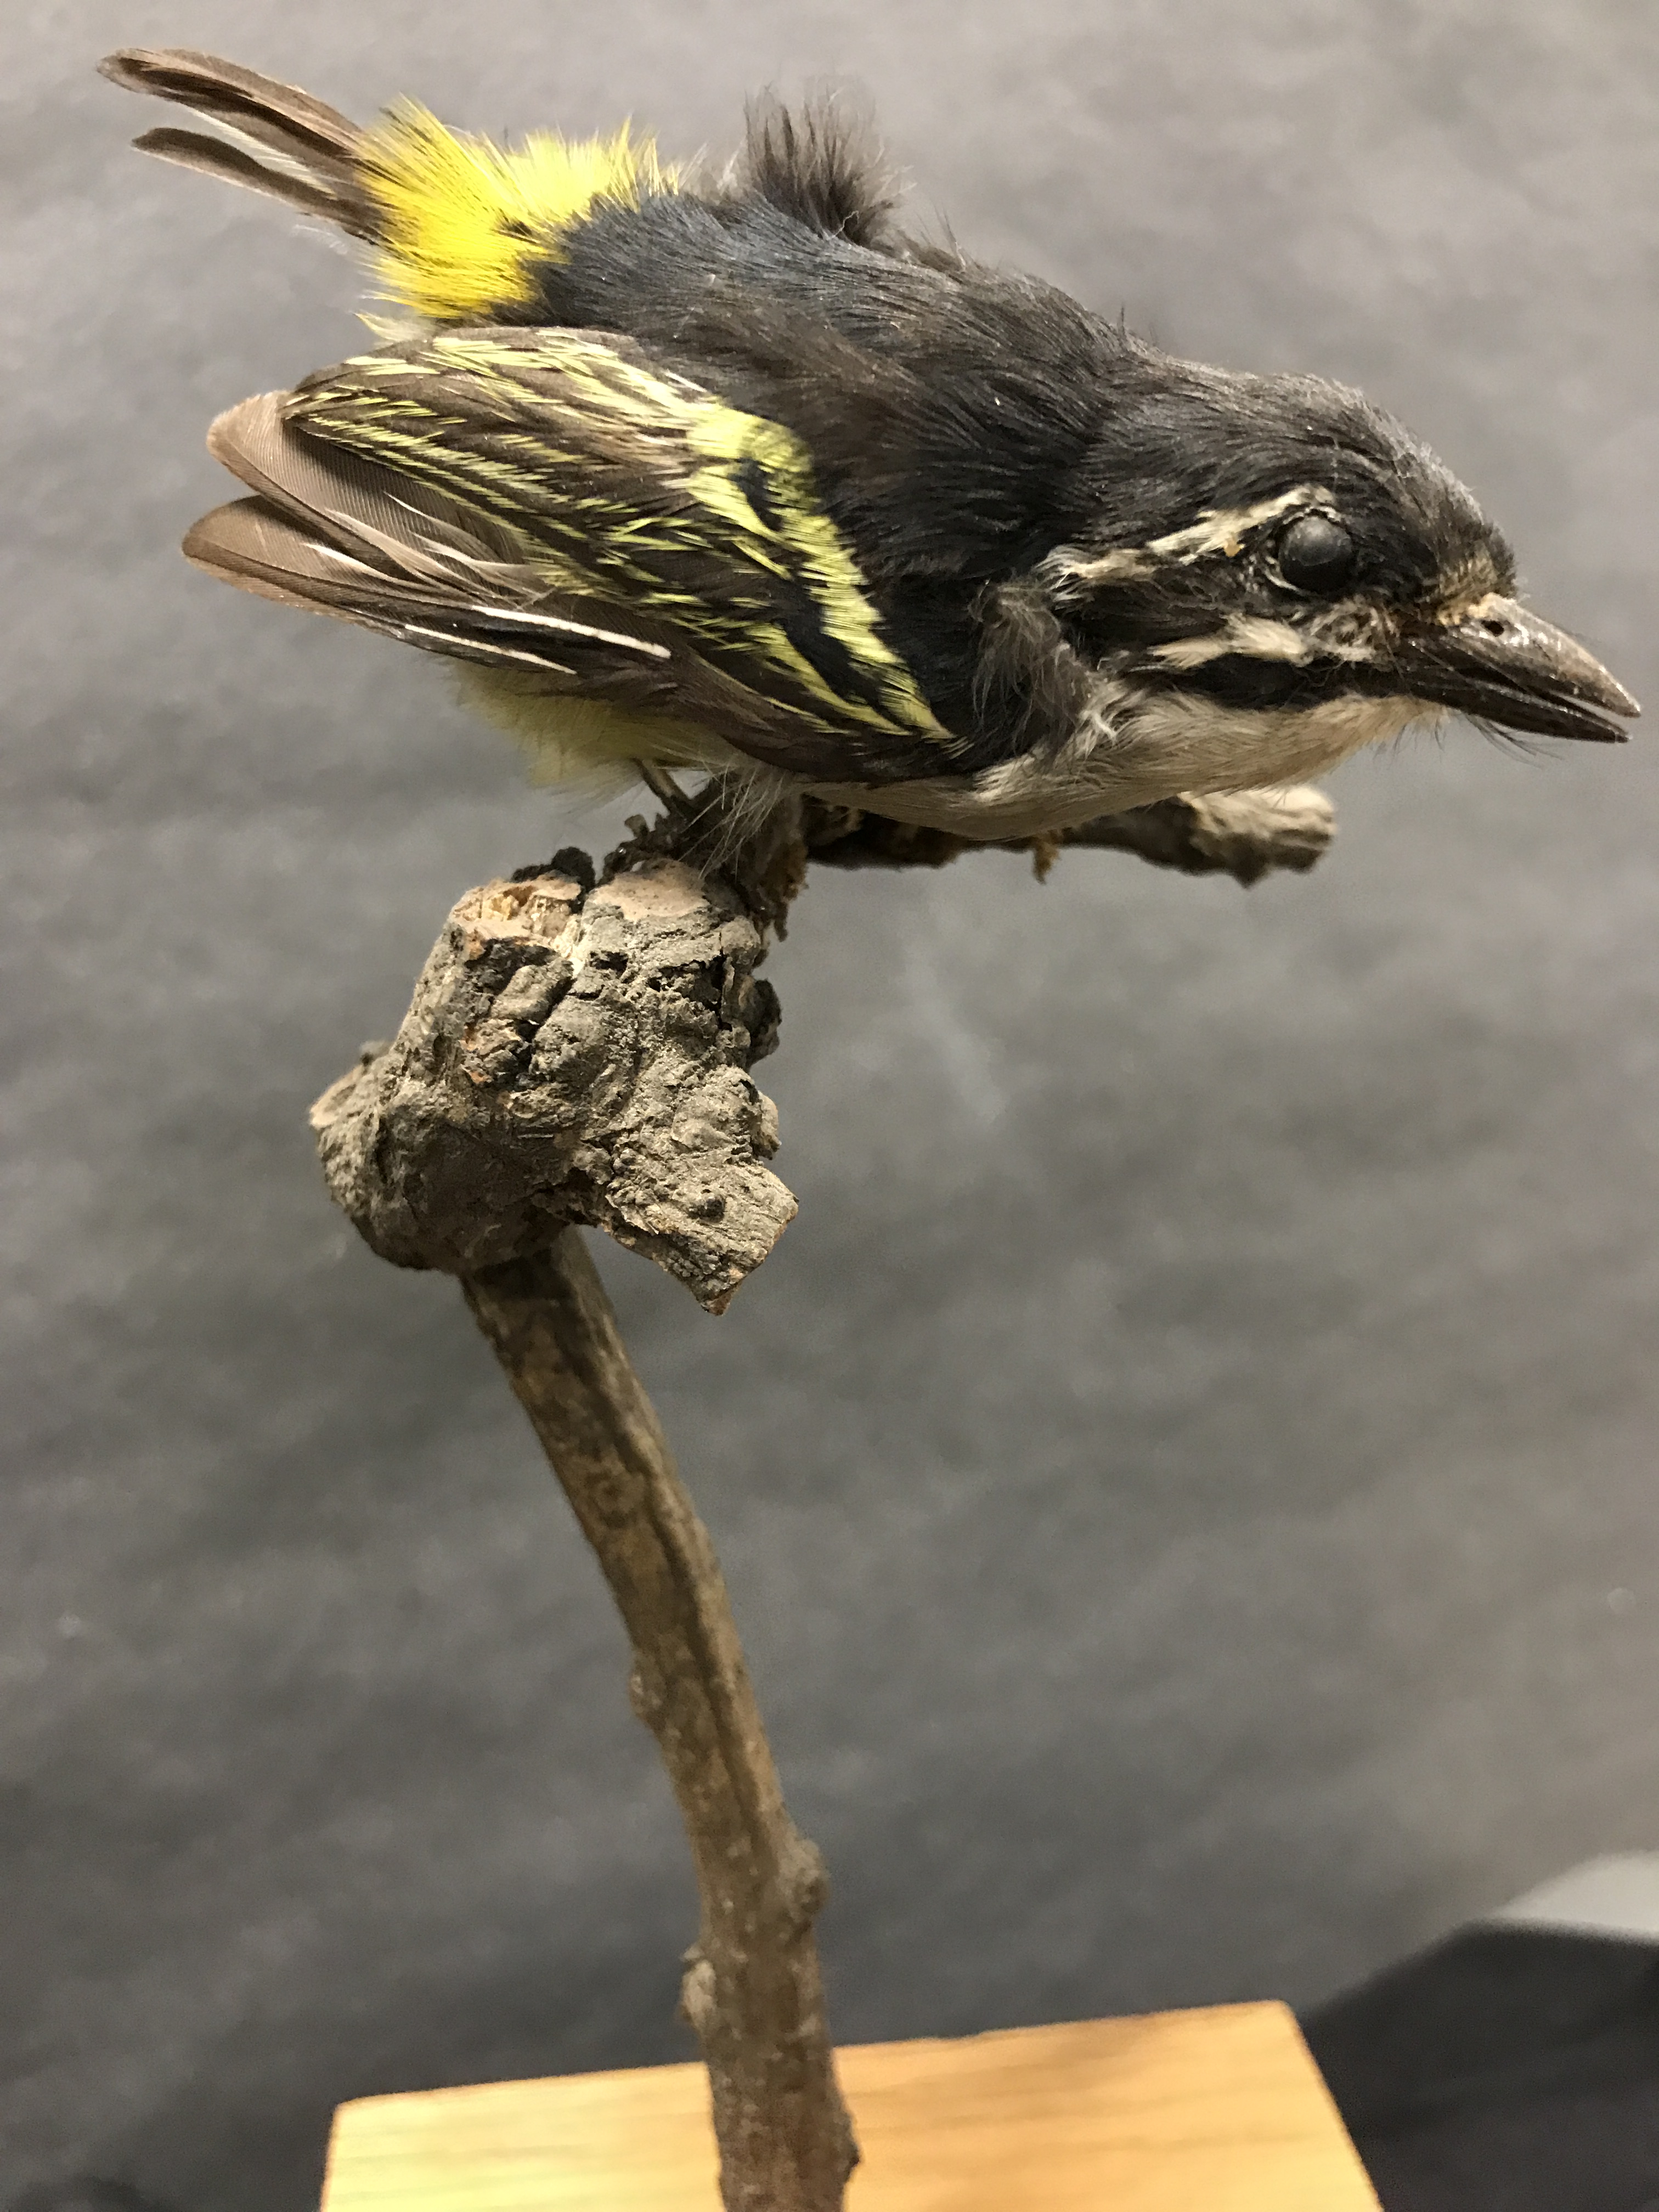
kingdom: Animalia
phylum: Chordata
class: Aves
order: Piciformes
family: Lybiidae
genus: Pogoniulus
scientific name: Pogoniulus bilineatus
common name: Yellow-rumped tinkerbird
